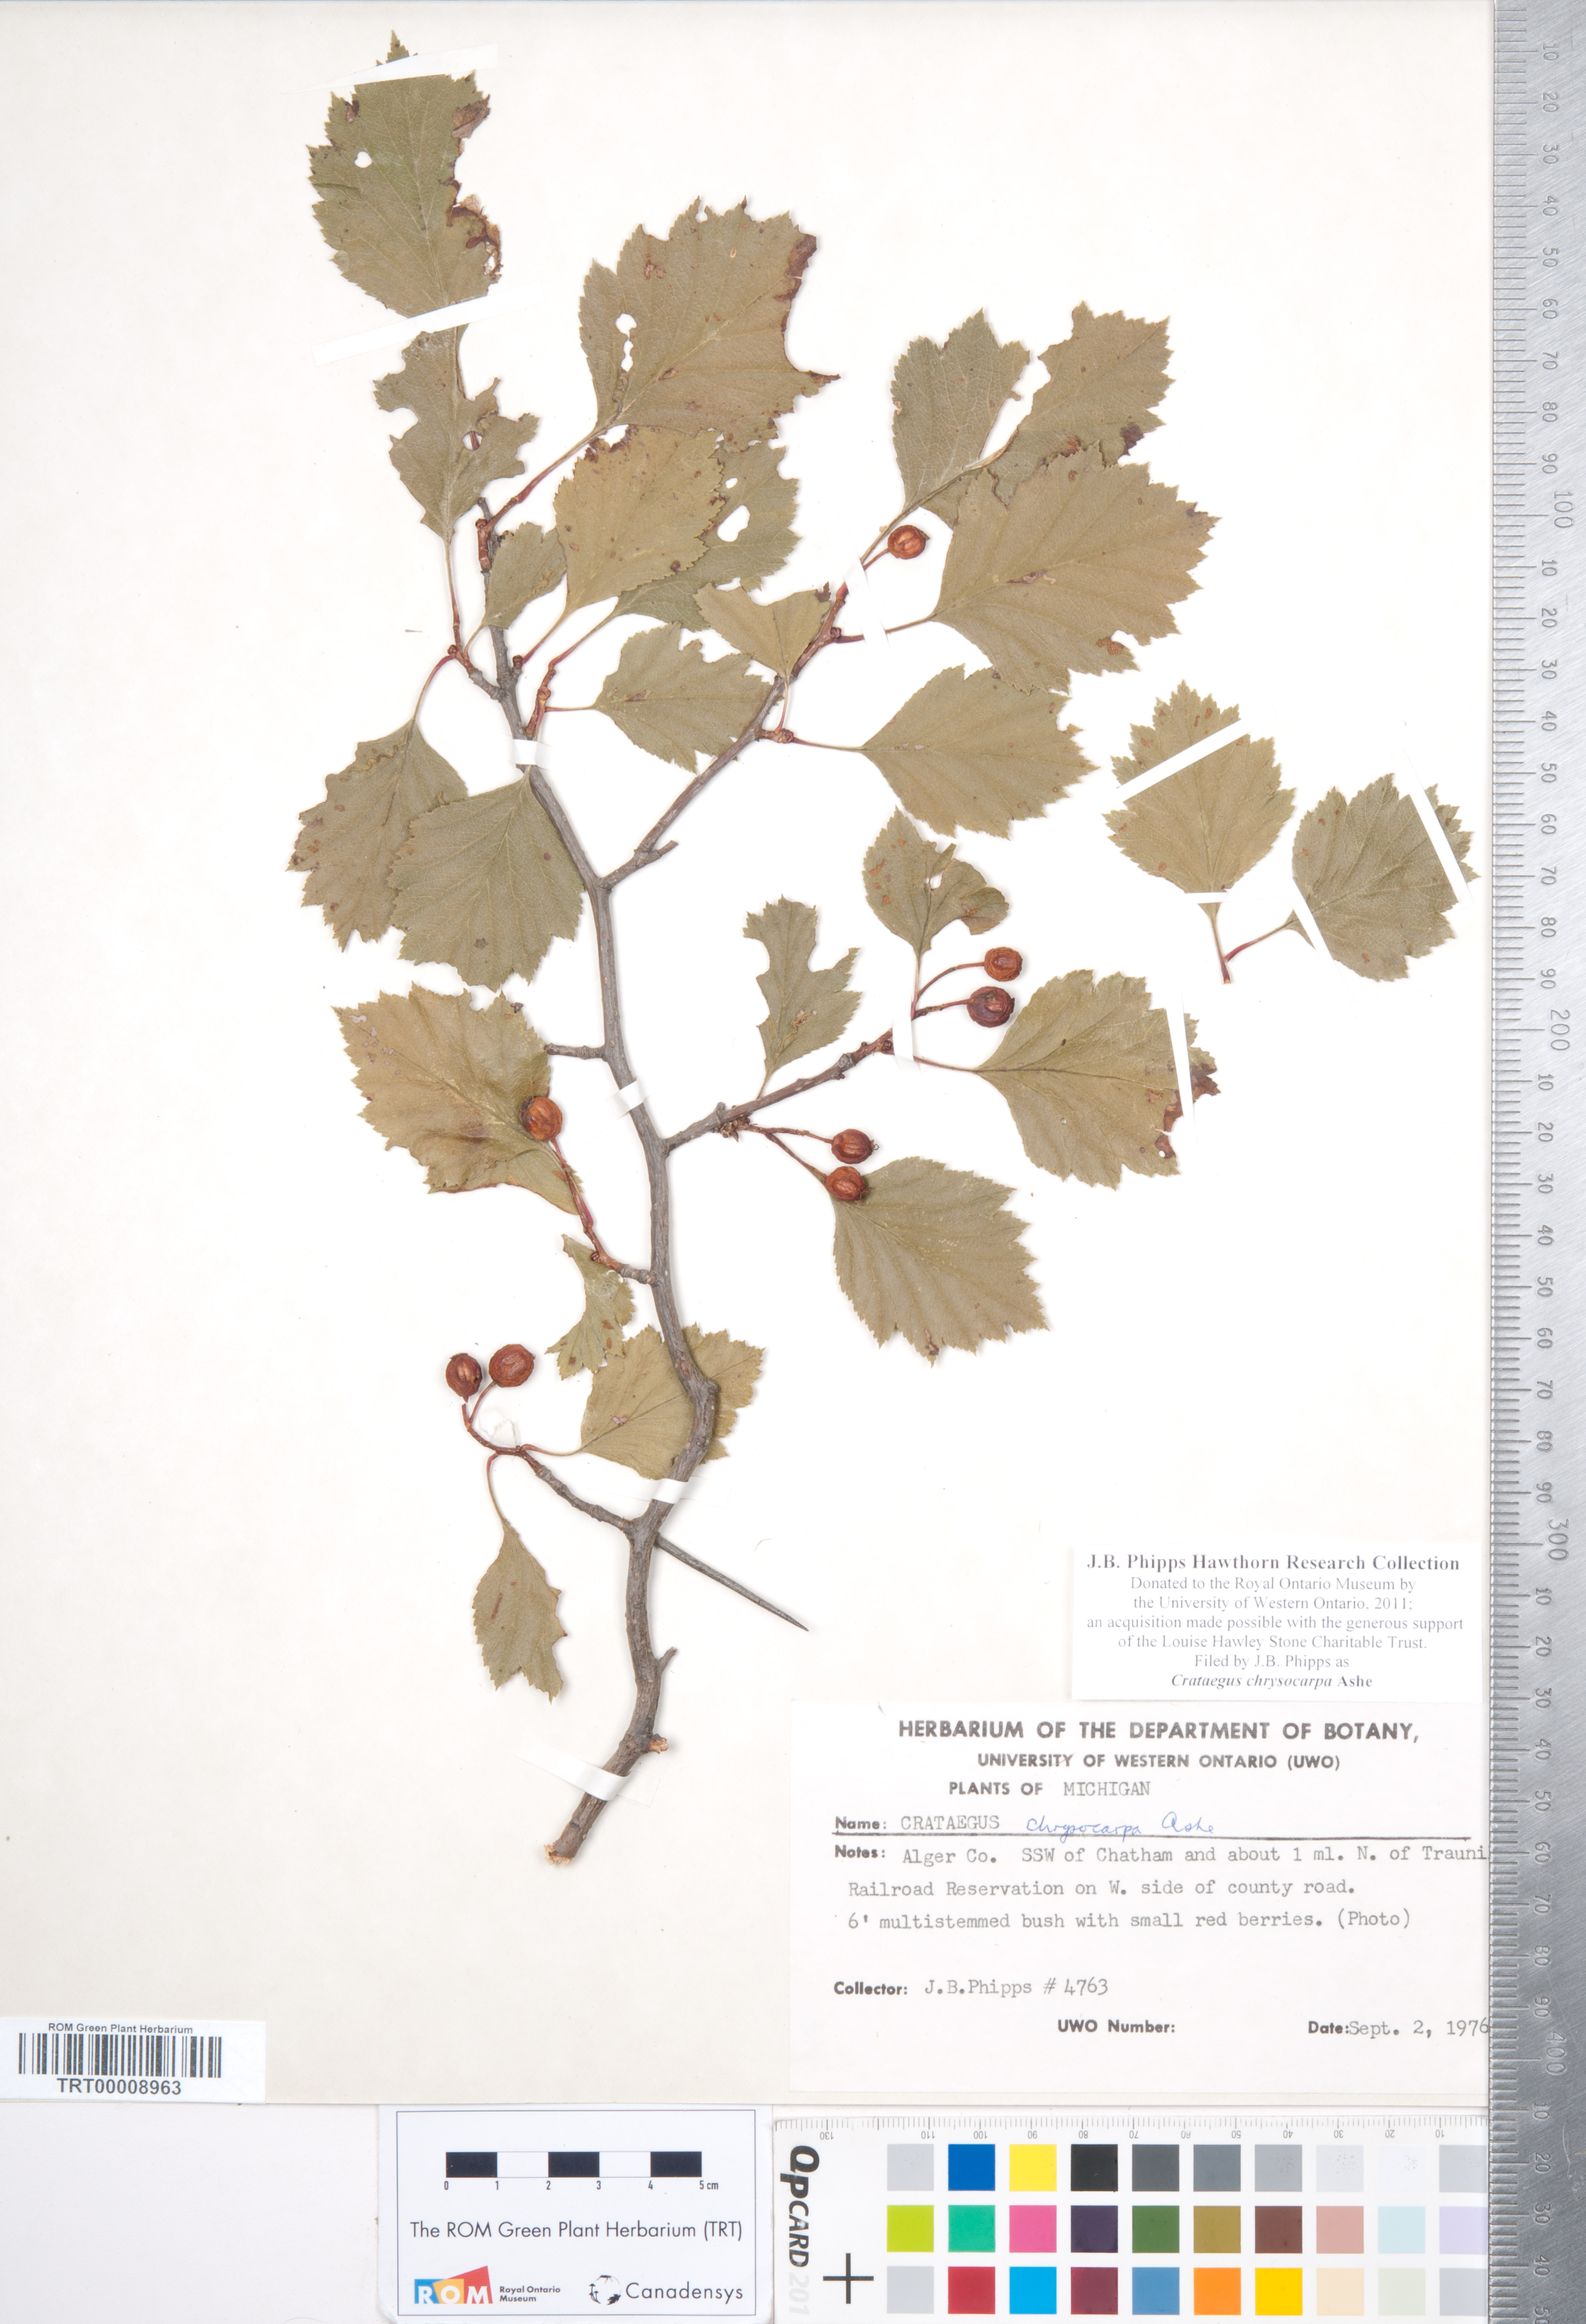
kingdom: Plantae
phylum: Tracheophyta
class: Magnoliopsida
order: Rosales
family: Rosaceae
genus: Crataegus
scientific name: Crataegus chrysocarpa
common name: Fire-berry hawthorn
